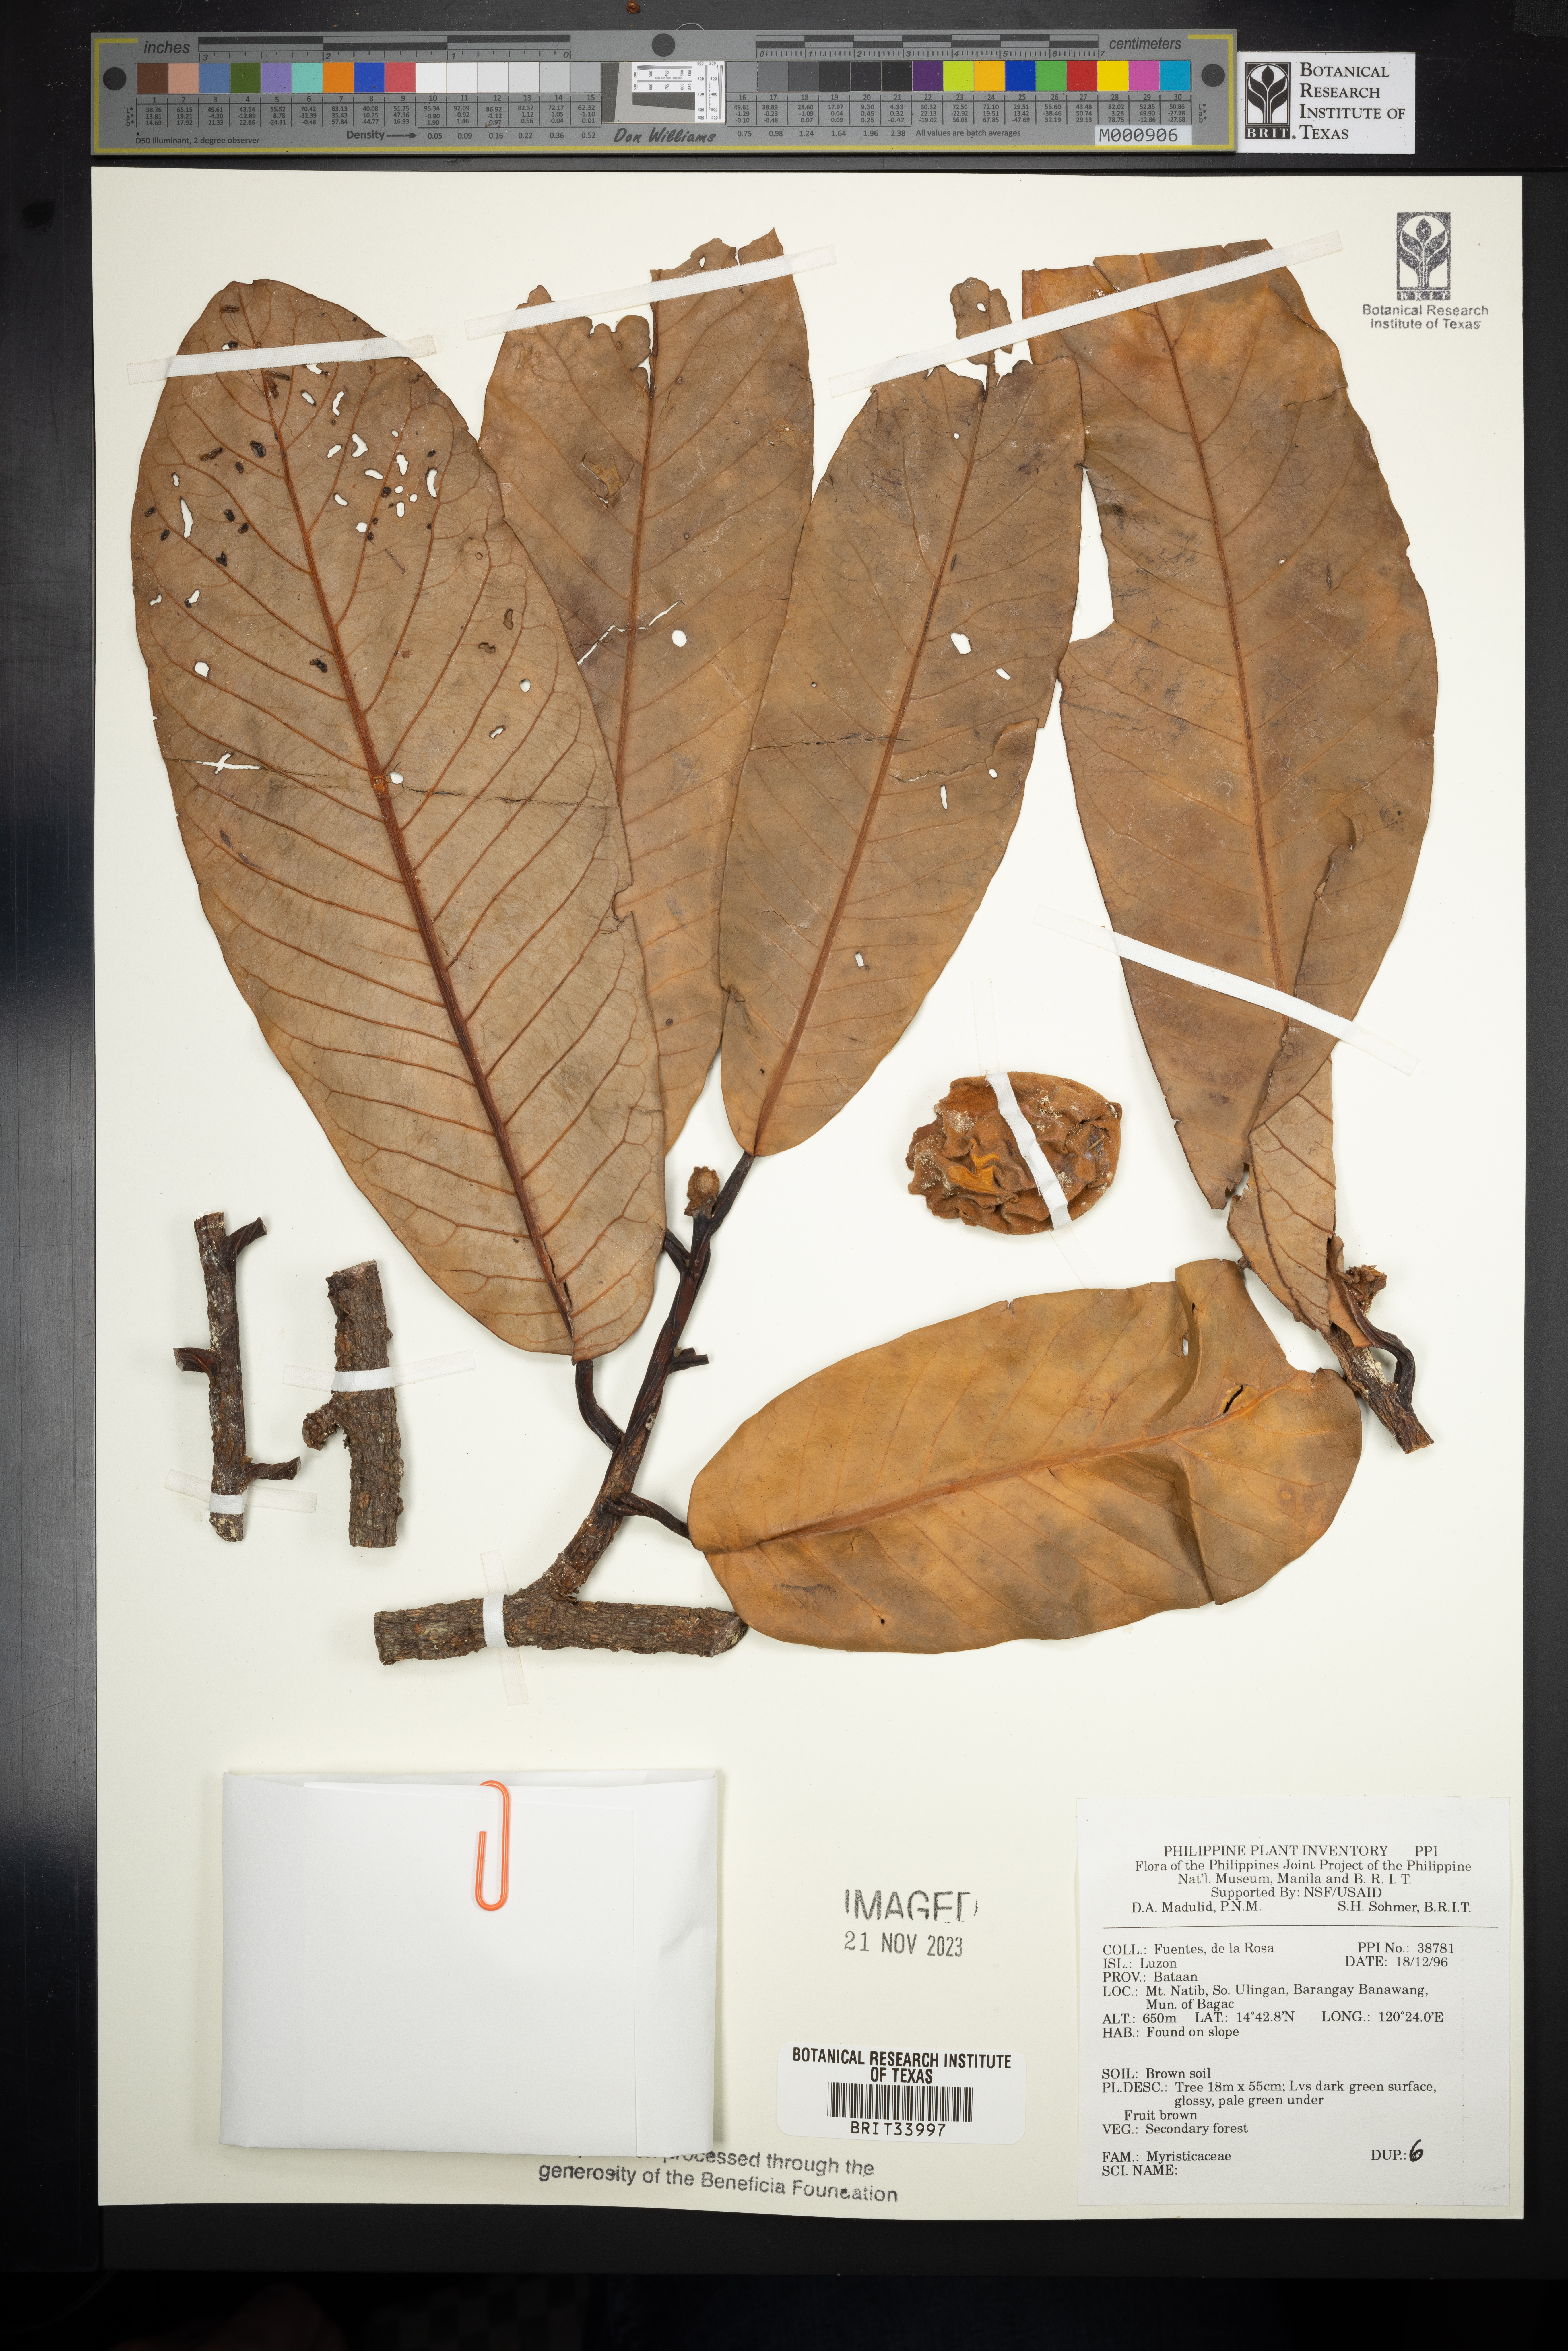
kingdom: Plantae
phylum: Tracheophyta
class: Magnoliopsida
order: Magnoliales
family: Myristicaceae
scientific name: Myristicaceae
